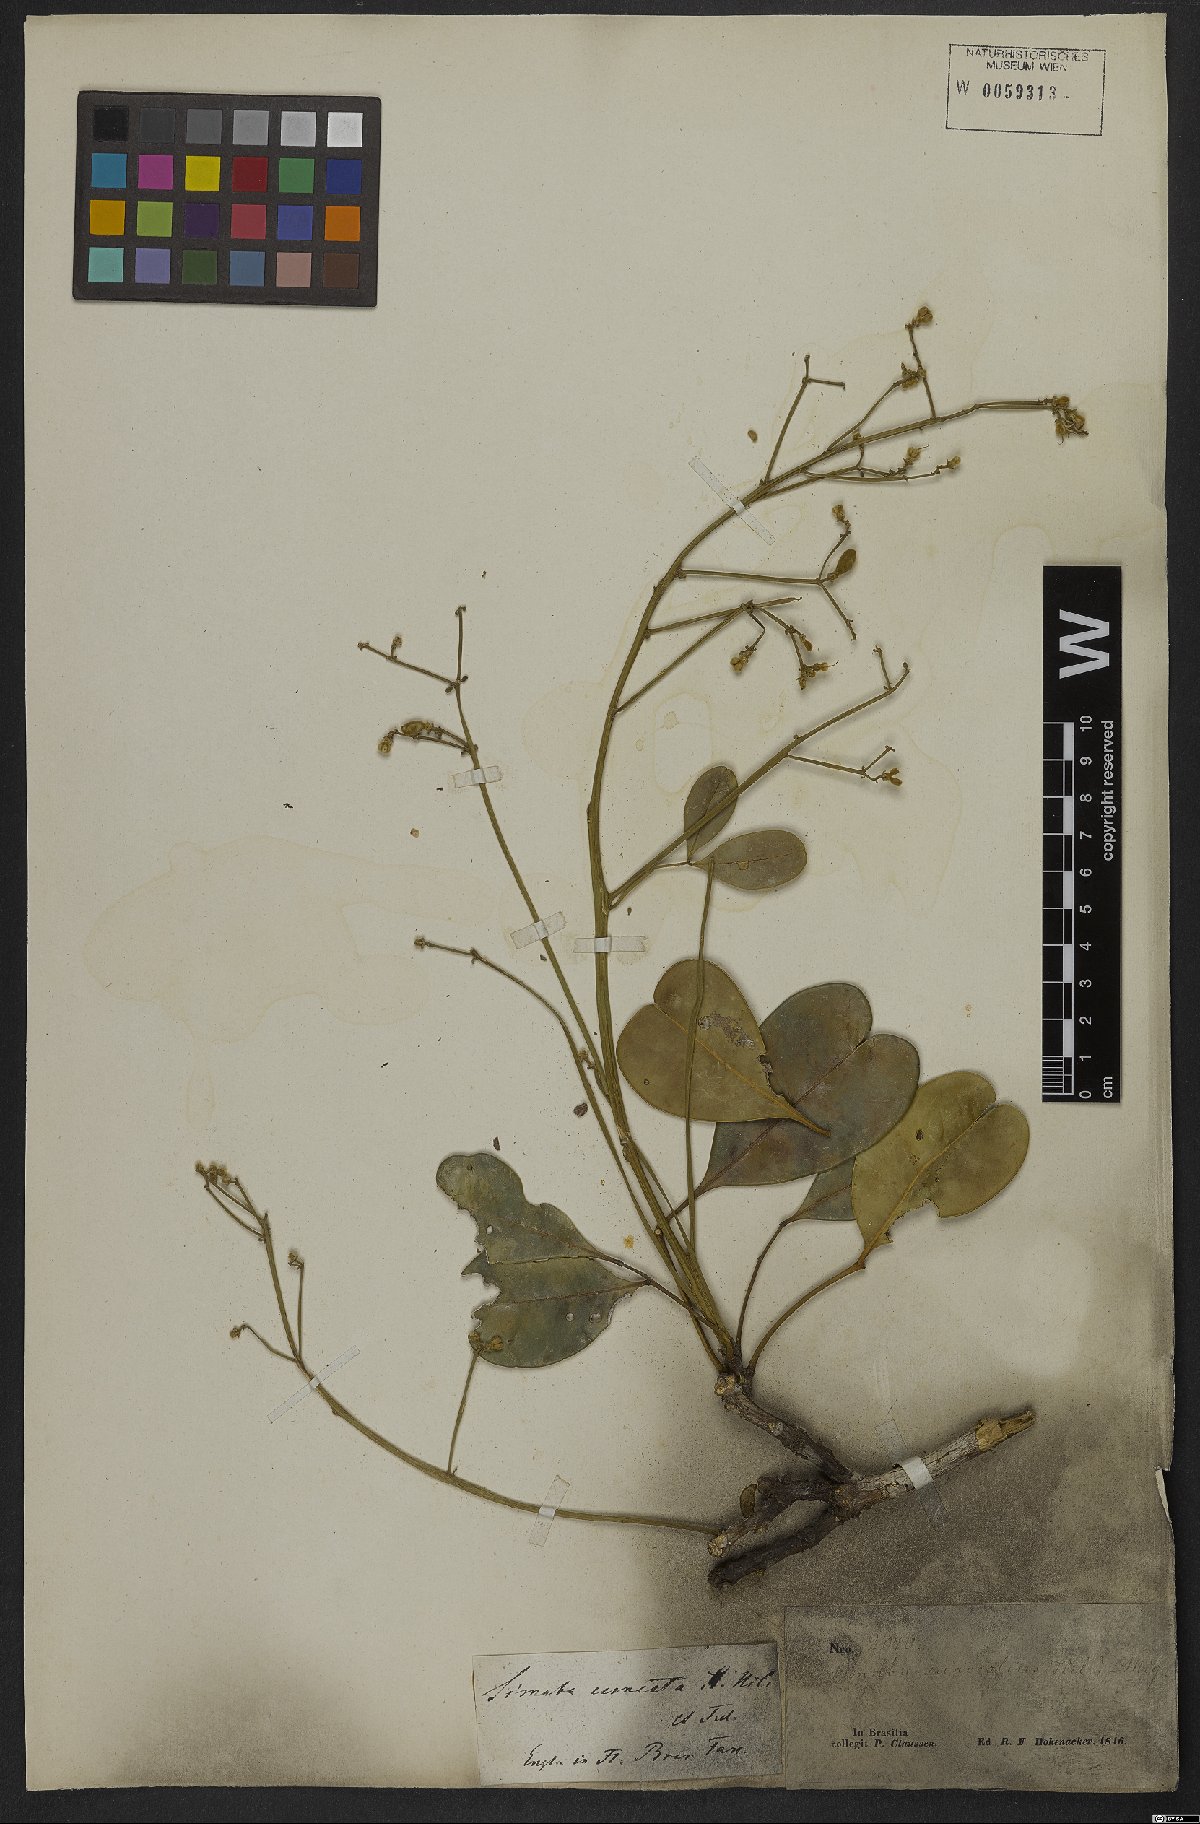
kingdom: Plantae
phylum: Tracheophyta
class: Magnoliopsida
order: Sapindales
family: Simaroubaceae
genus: Homalolepis
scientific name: Homalolepis cuneata
